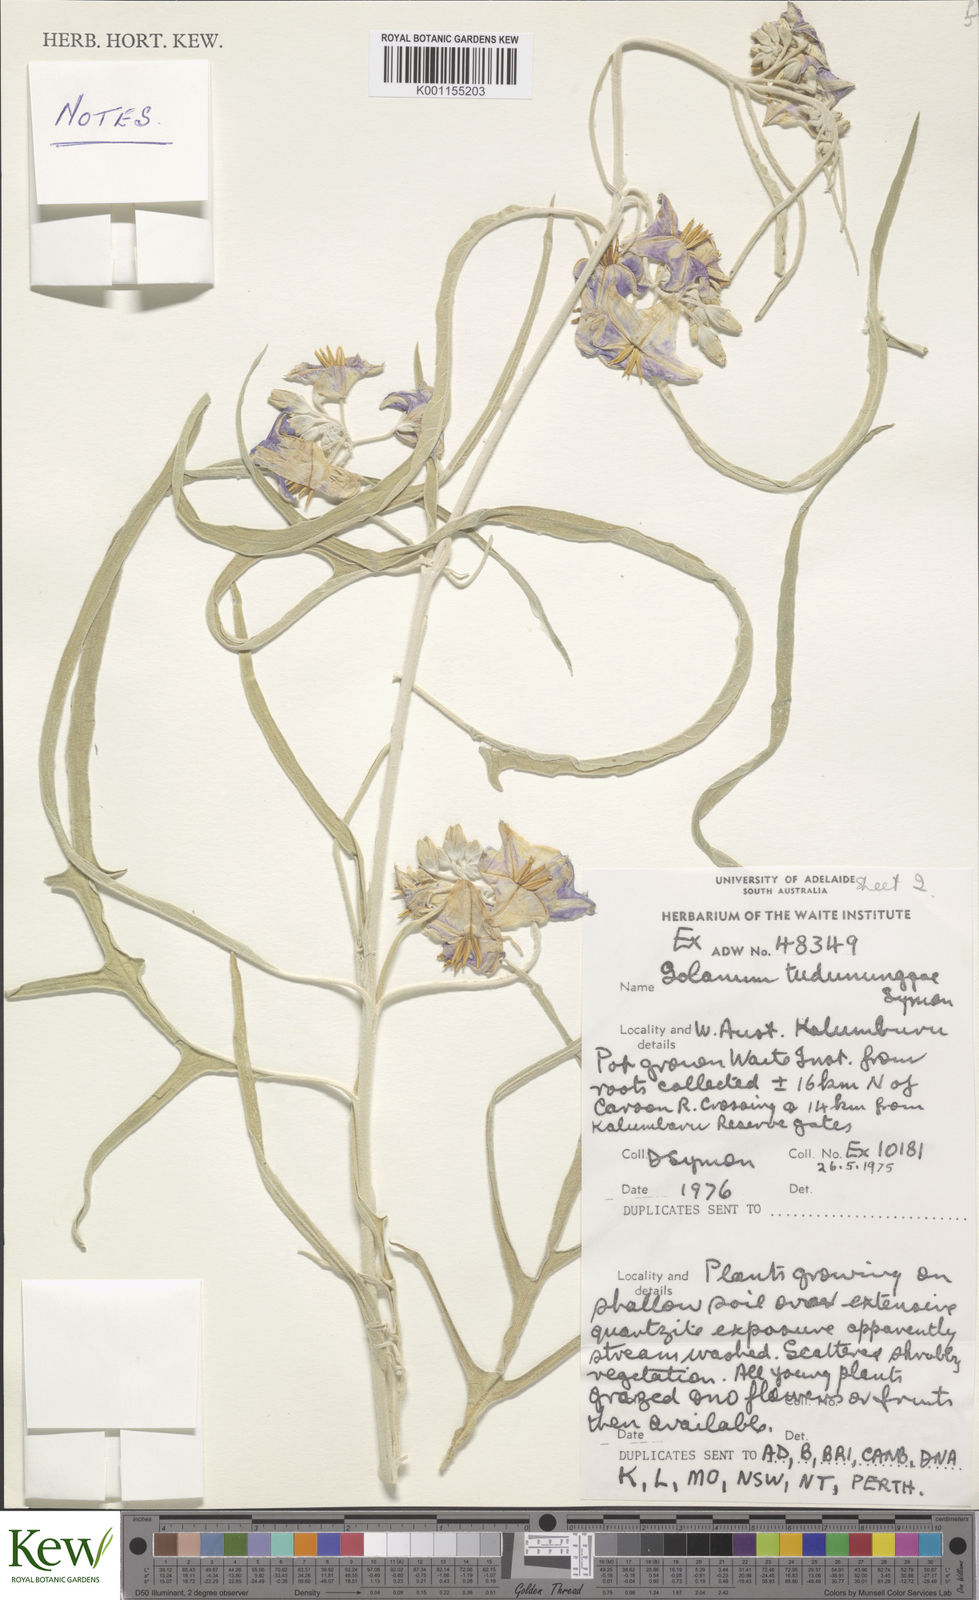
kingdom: Plantae
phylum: Tracheophyta
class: Magnoliopsida
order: Solanales
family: Solanaceae
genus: Solanum
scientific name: Solanum tudununggae
